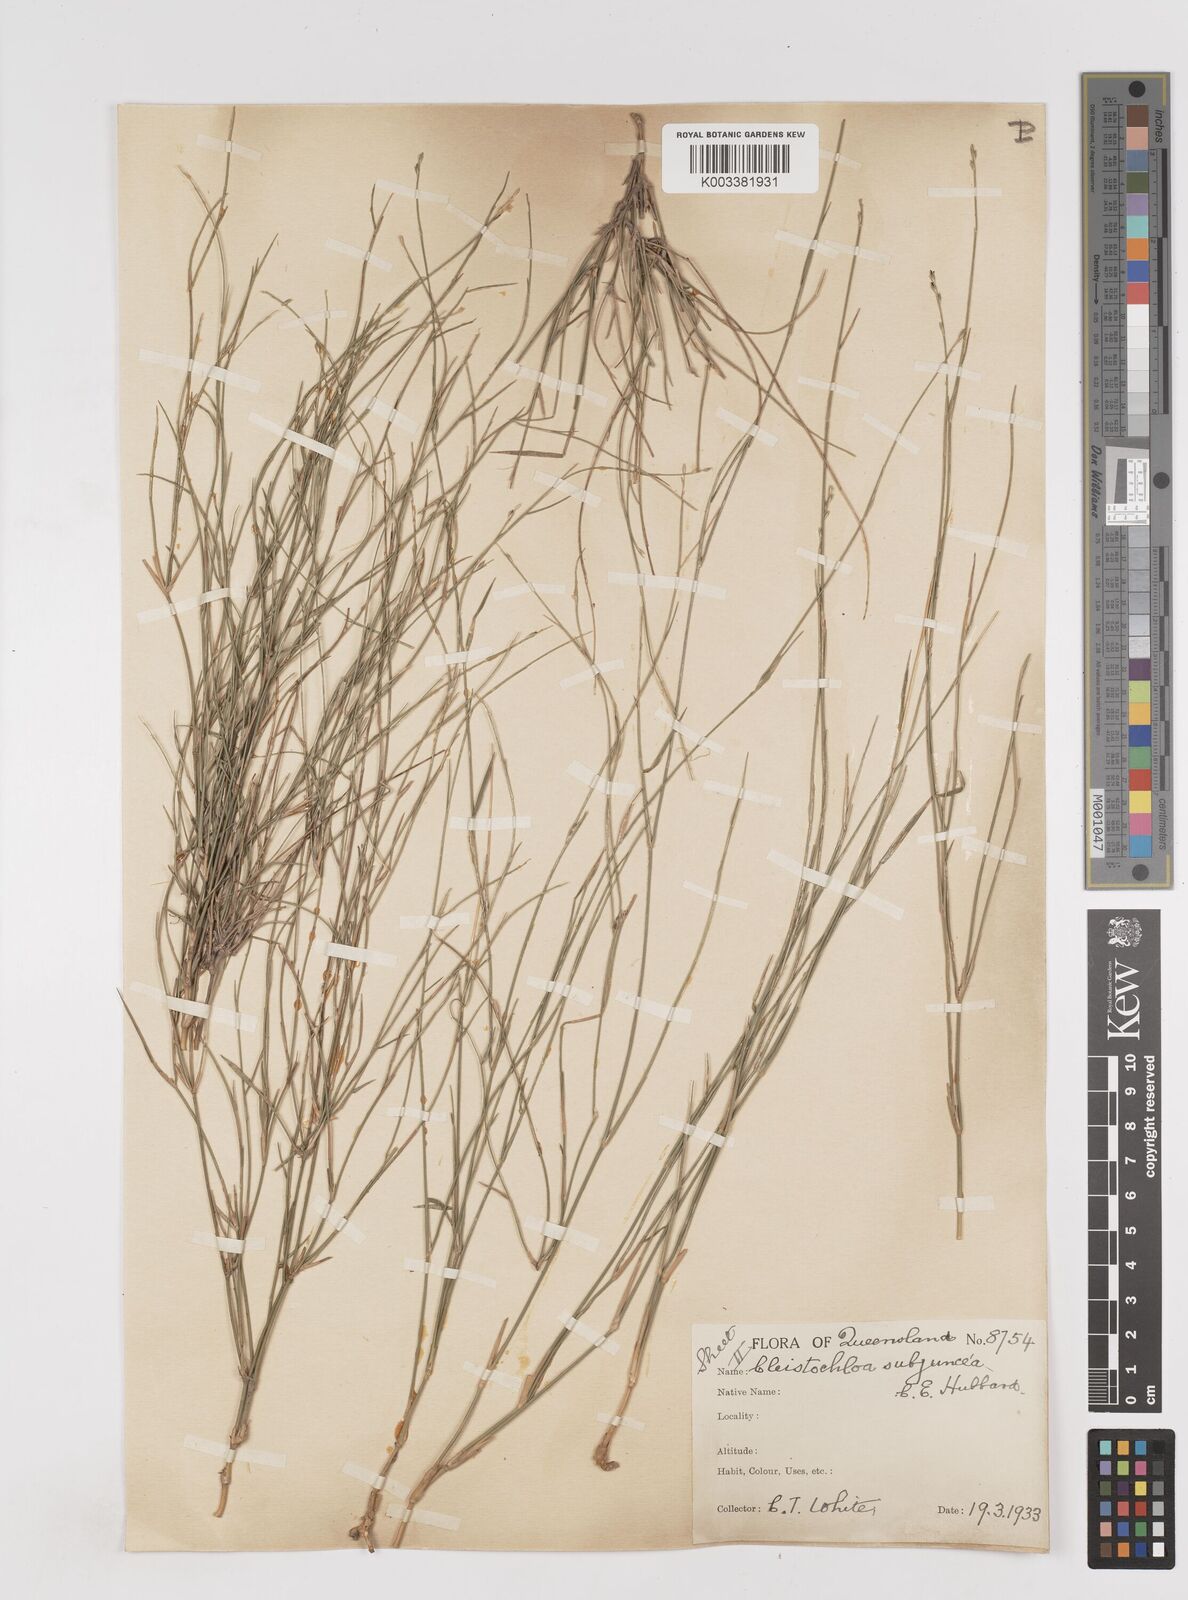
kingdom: Plantae
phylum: Tracheophyta
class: Liliopsida
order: Poales
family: Poaceae
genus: Cleistochloa
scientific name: Cleistochloa subjuncea
